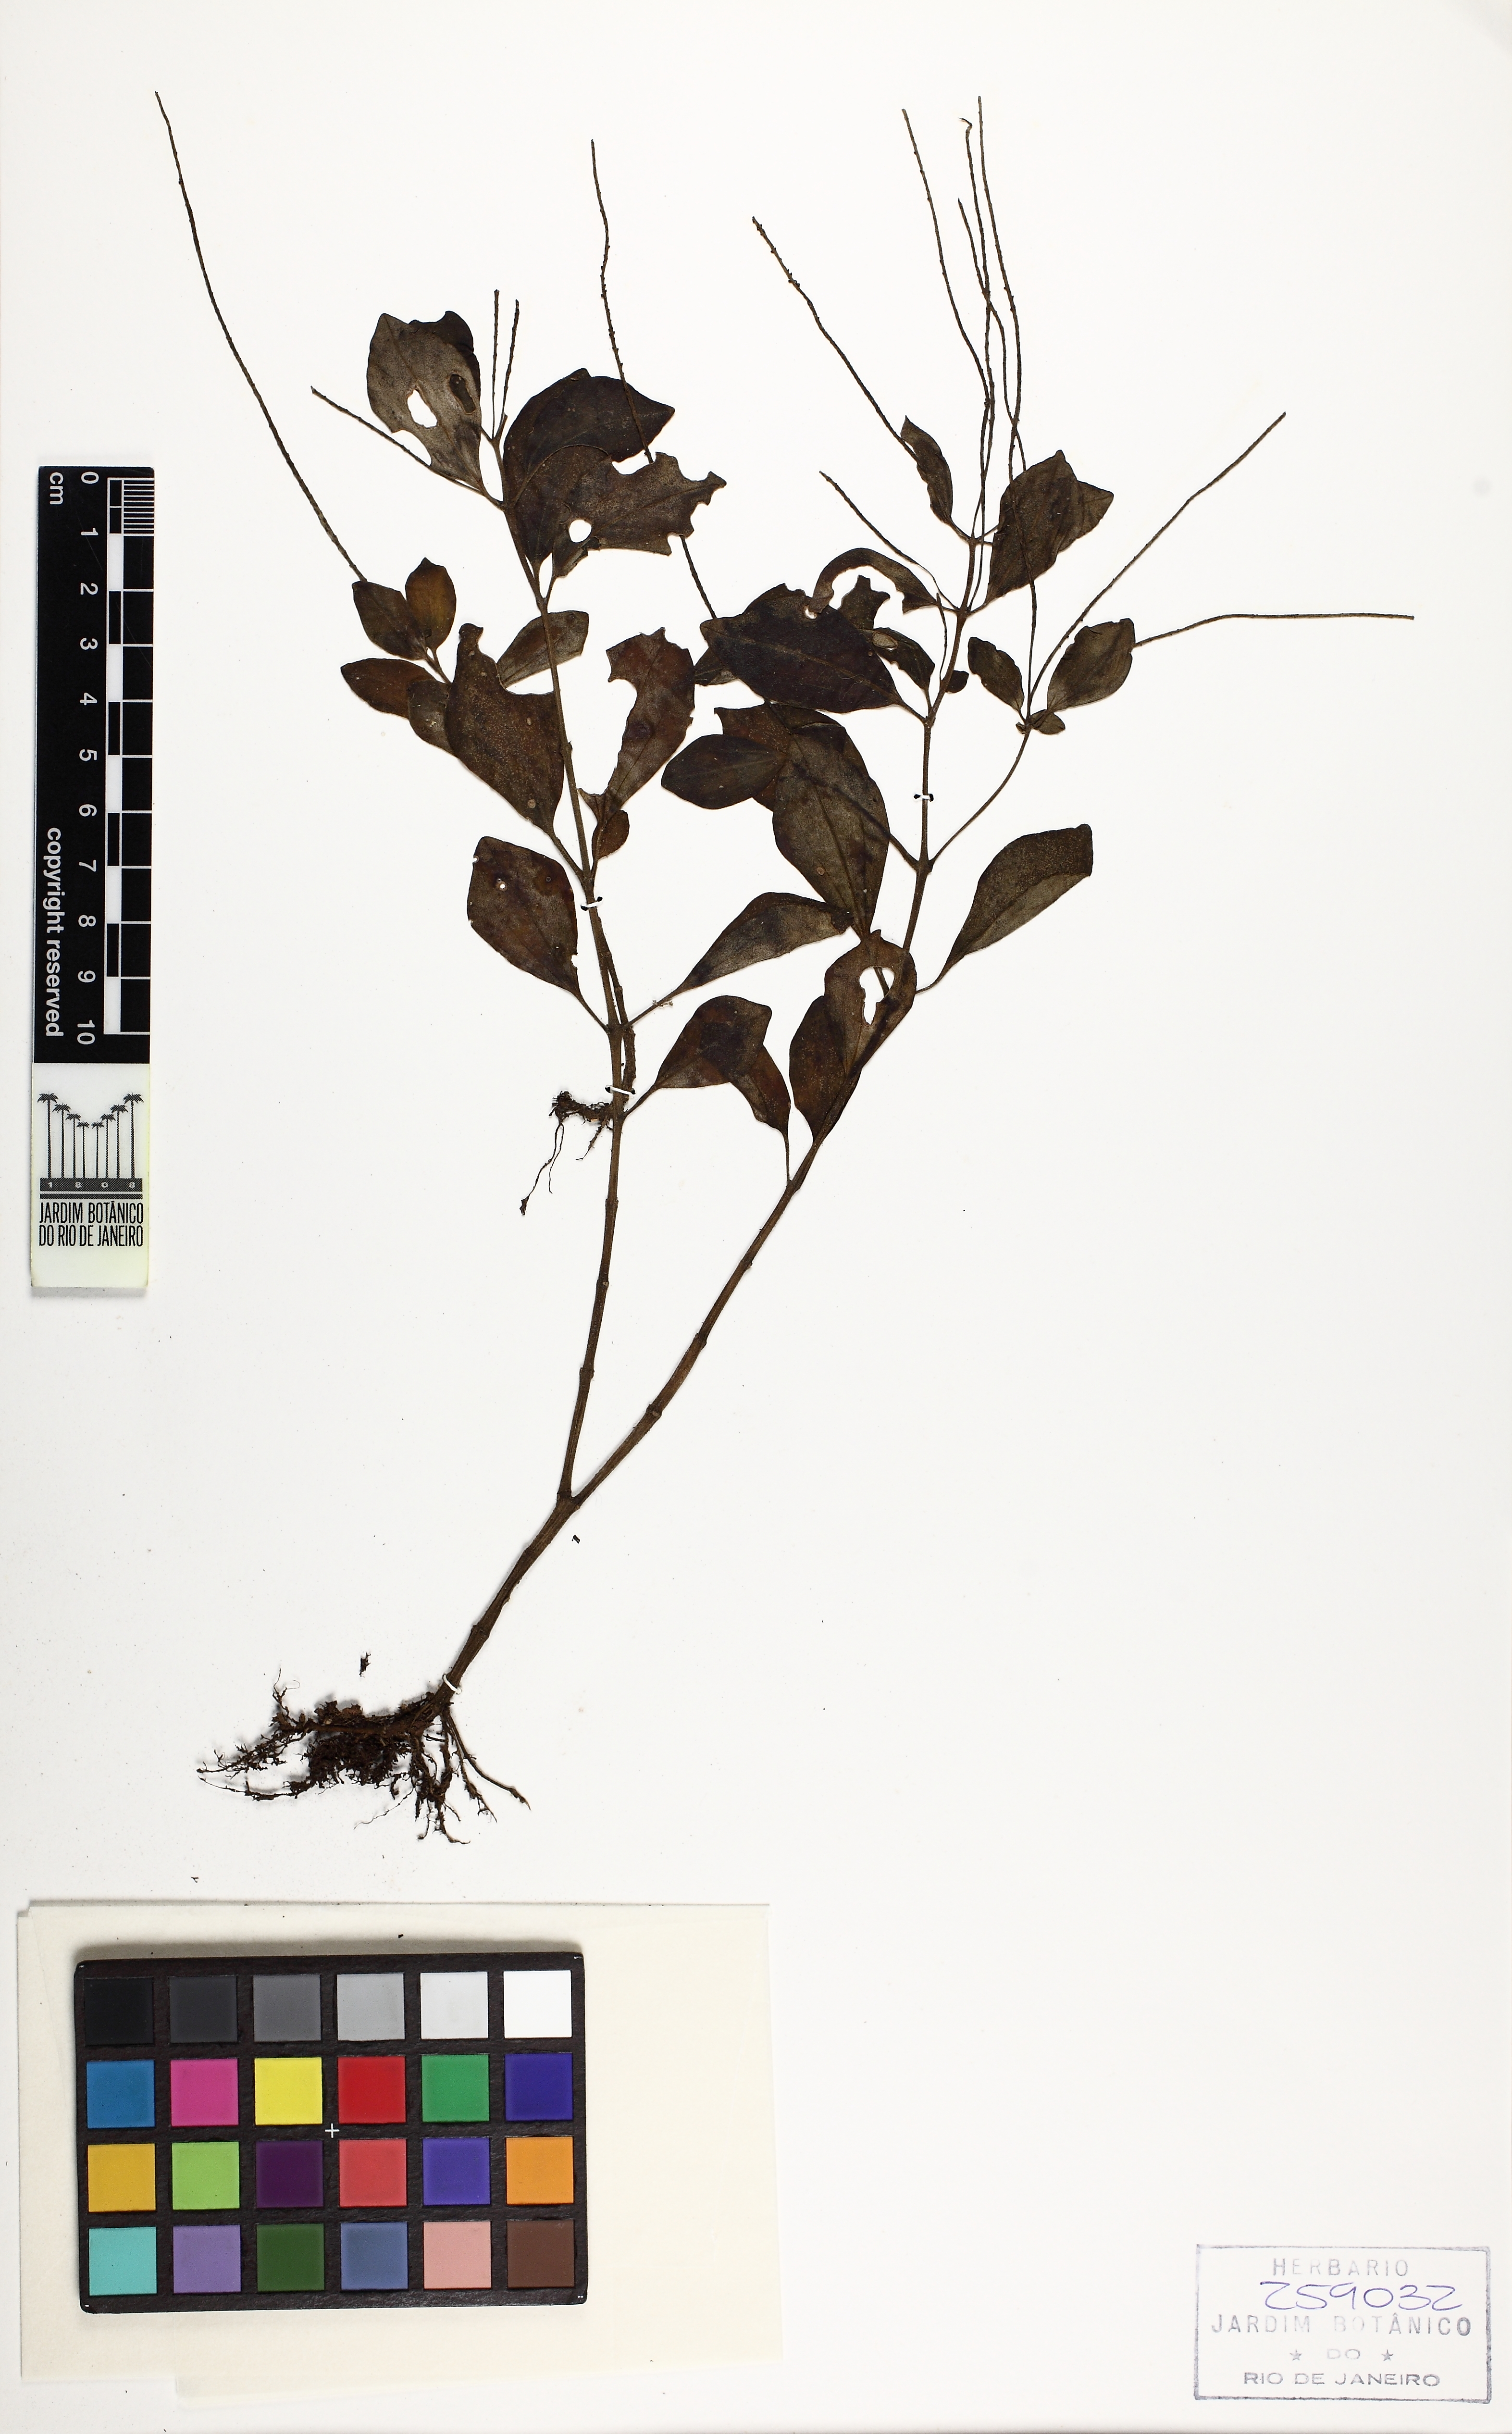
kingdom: Plantae
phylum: Tracheophyta
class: Magnoliopsida
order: Piperales
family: Piperaceae
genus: Peperomia
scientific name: Peperomia blanda
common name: Arid-land peperomia
